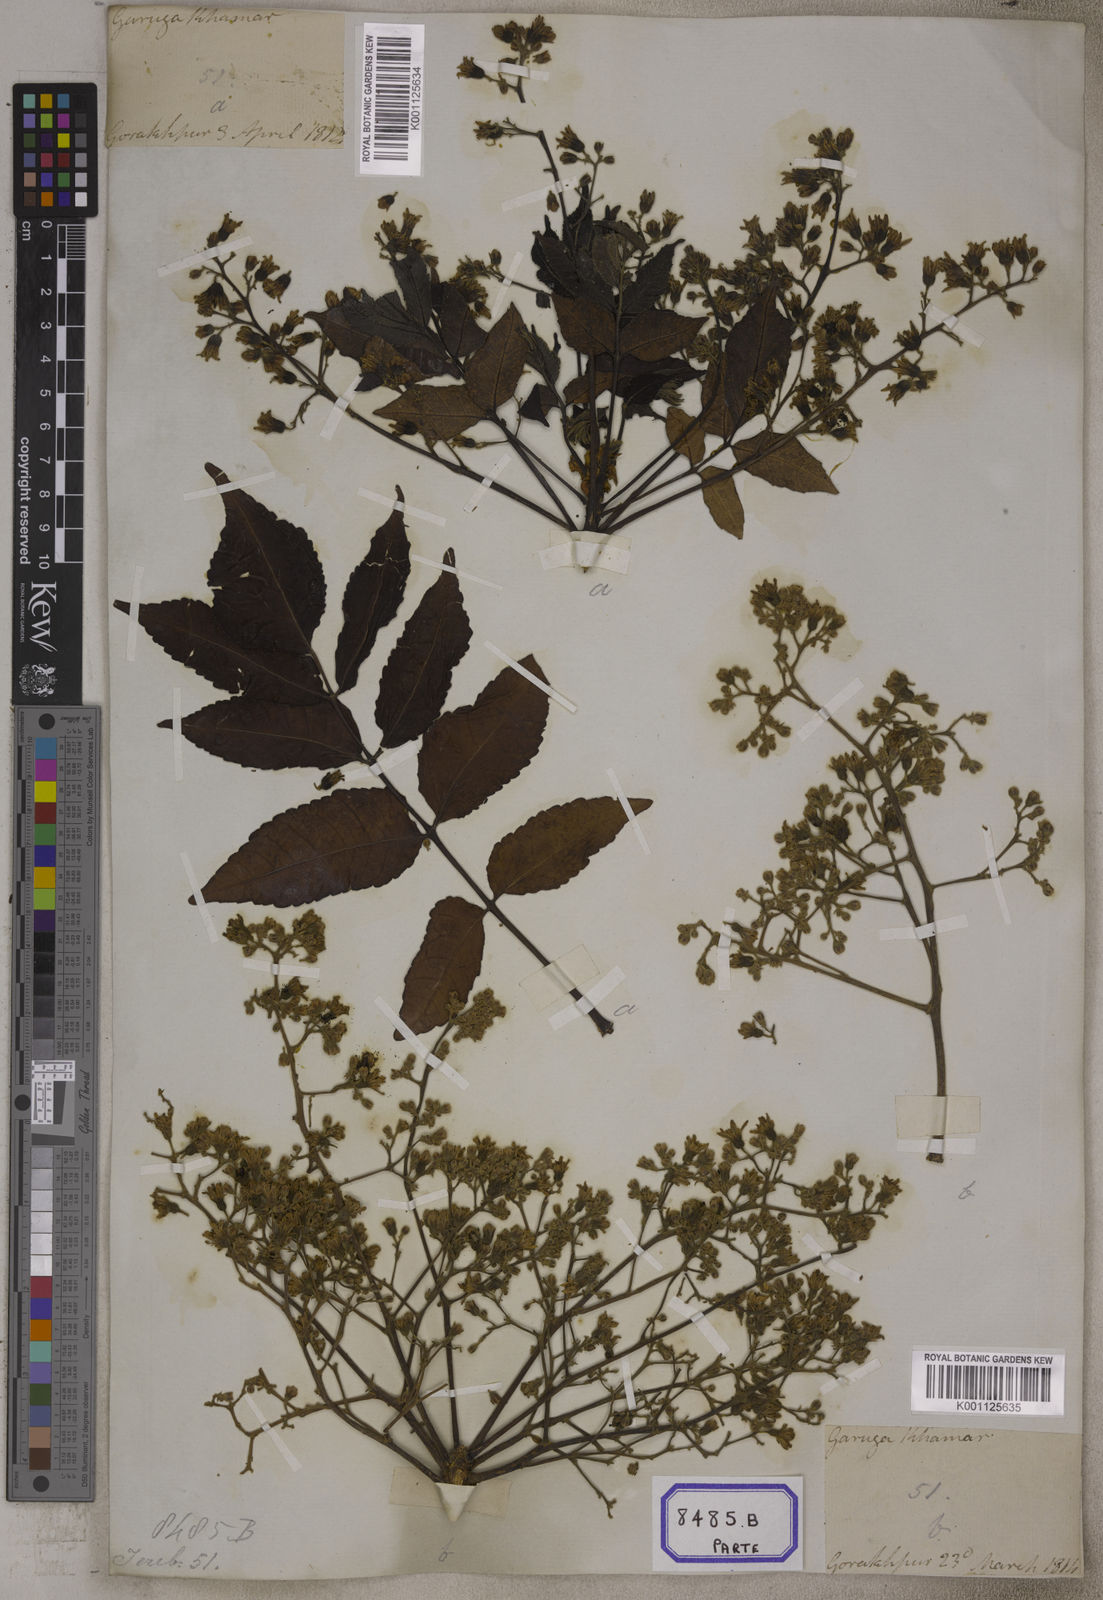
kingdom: Plantae
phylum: Tracheophyta
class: Magnoliopsida
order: Sapindales
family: Burseraceae
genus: Garuga
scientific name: Garuga pinnata
